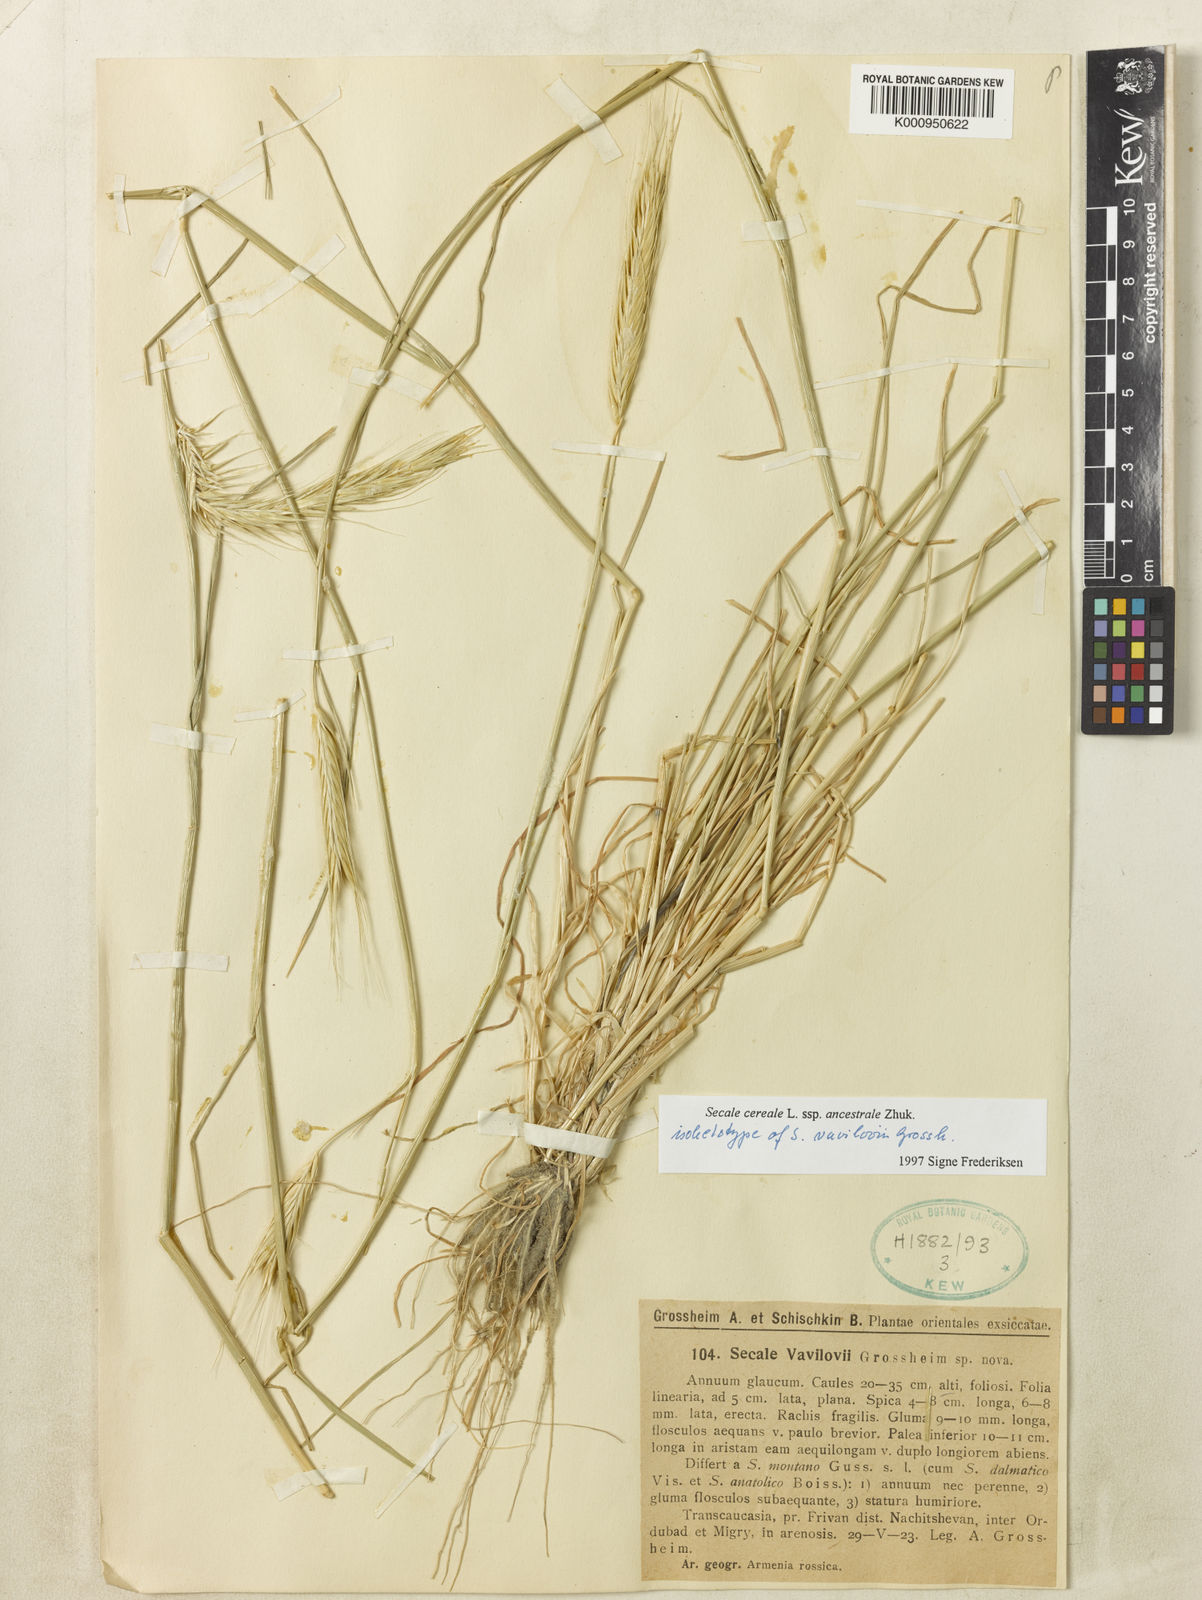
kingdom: Plantae
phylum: Tracheophyta
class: Liliopsida
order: Poales
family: Poaceae
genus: Secale
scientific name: Secale cereale
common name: Rye
